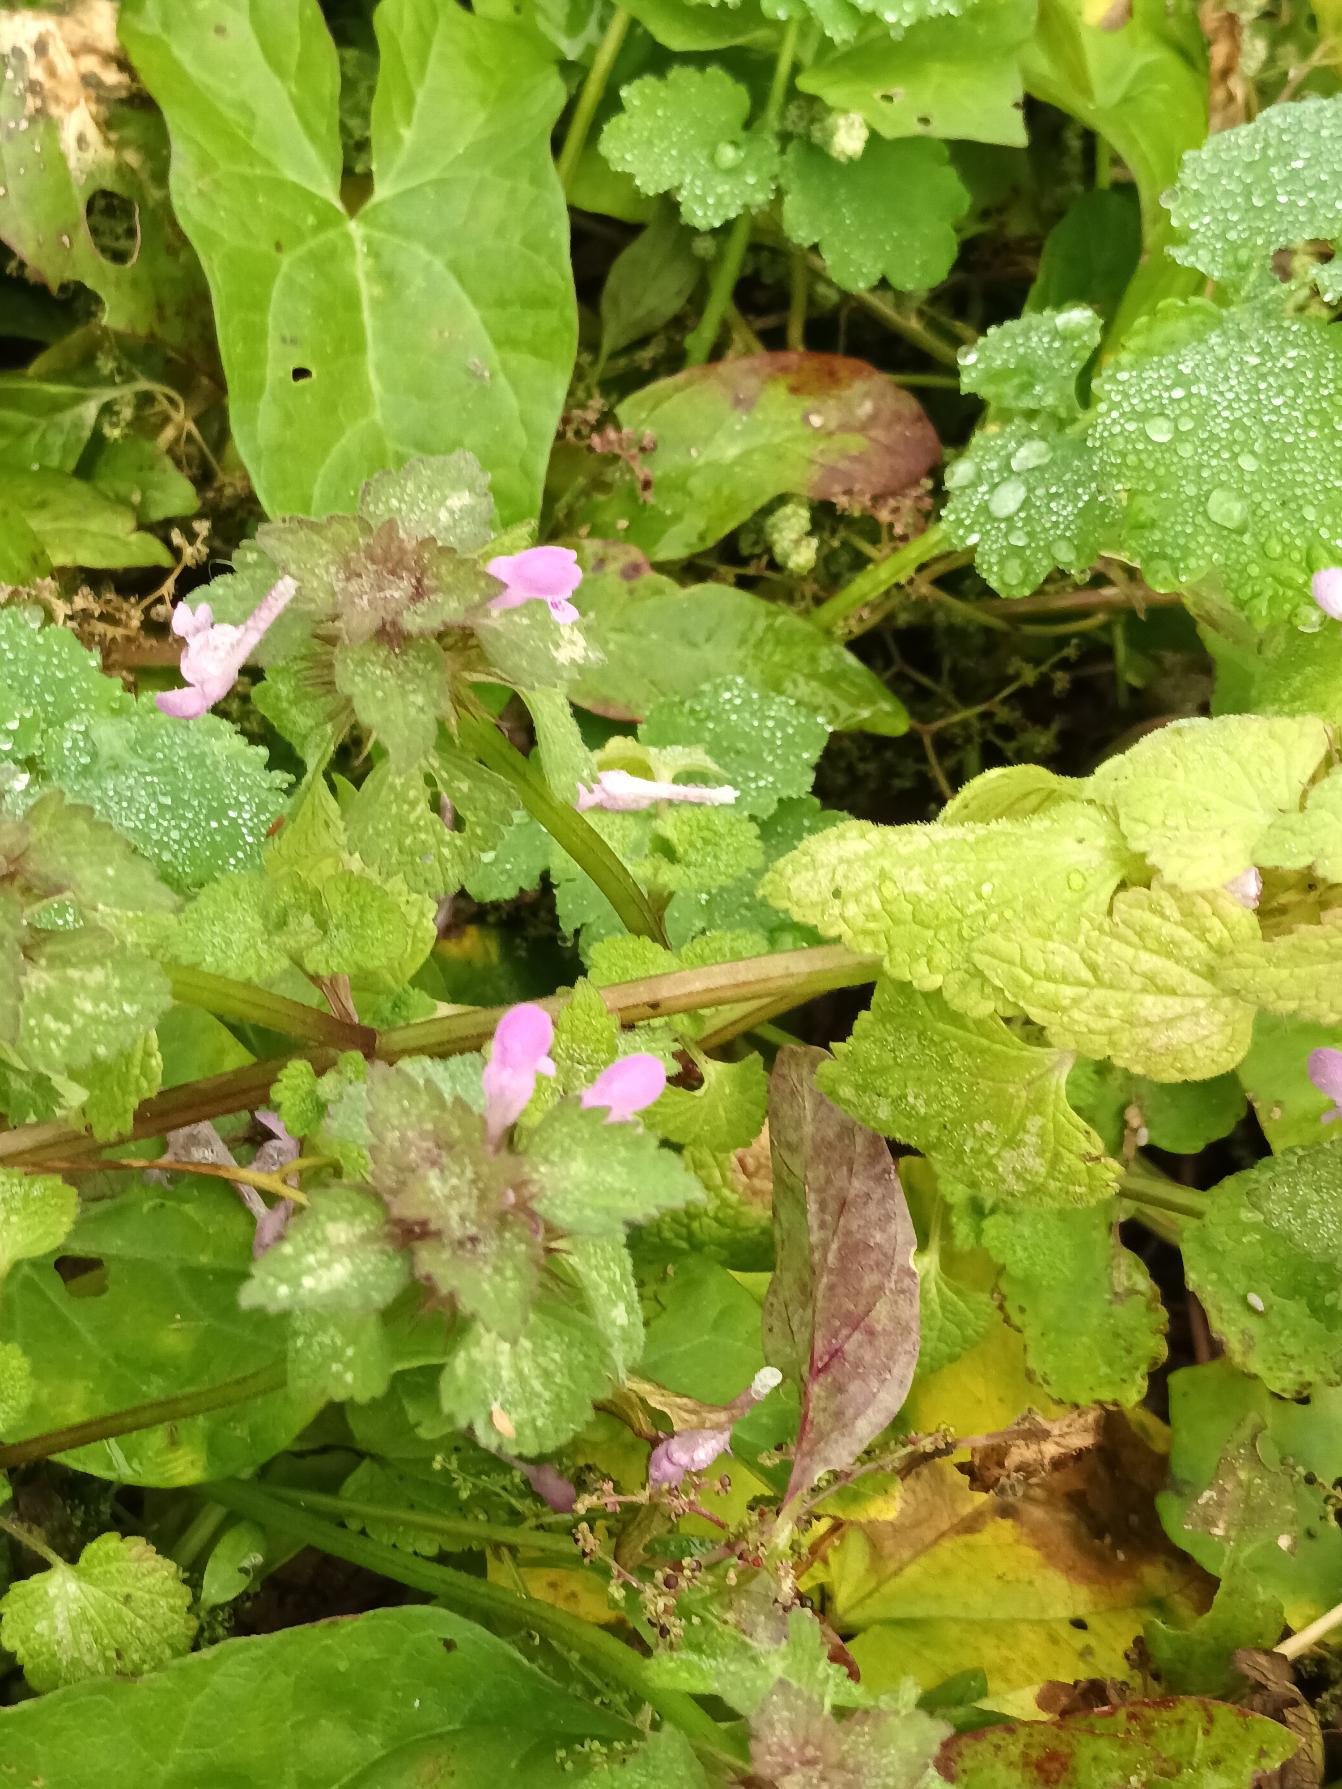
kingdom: Plantae
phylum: Tracheophyta
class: Magnoliopsida
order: Lamiales
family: Lamiaceae
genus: Lamium
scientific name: Lamium purpureum
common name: Rød tvetand
